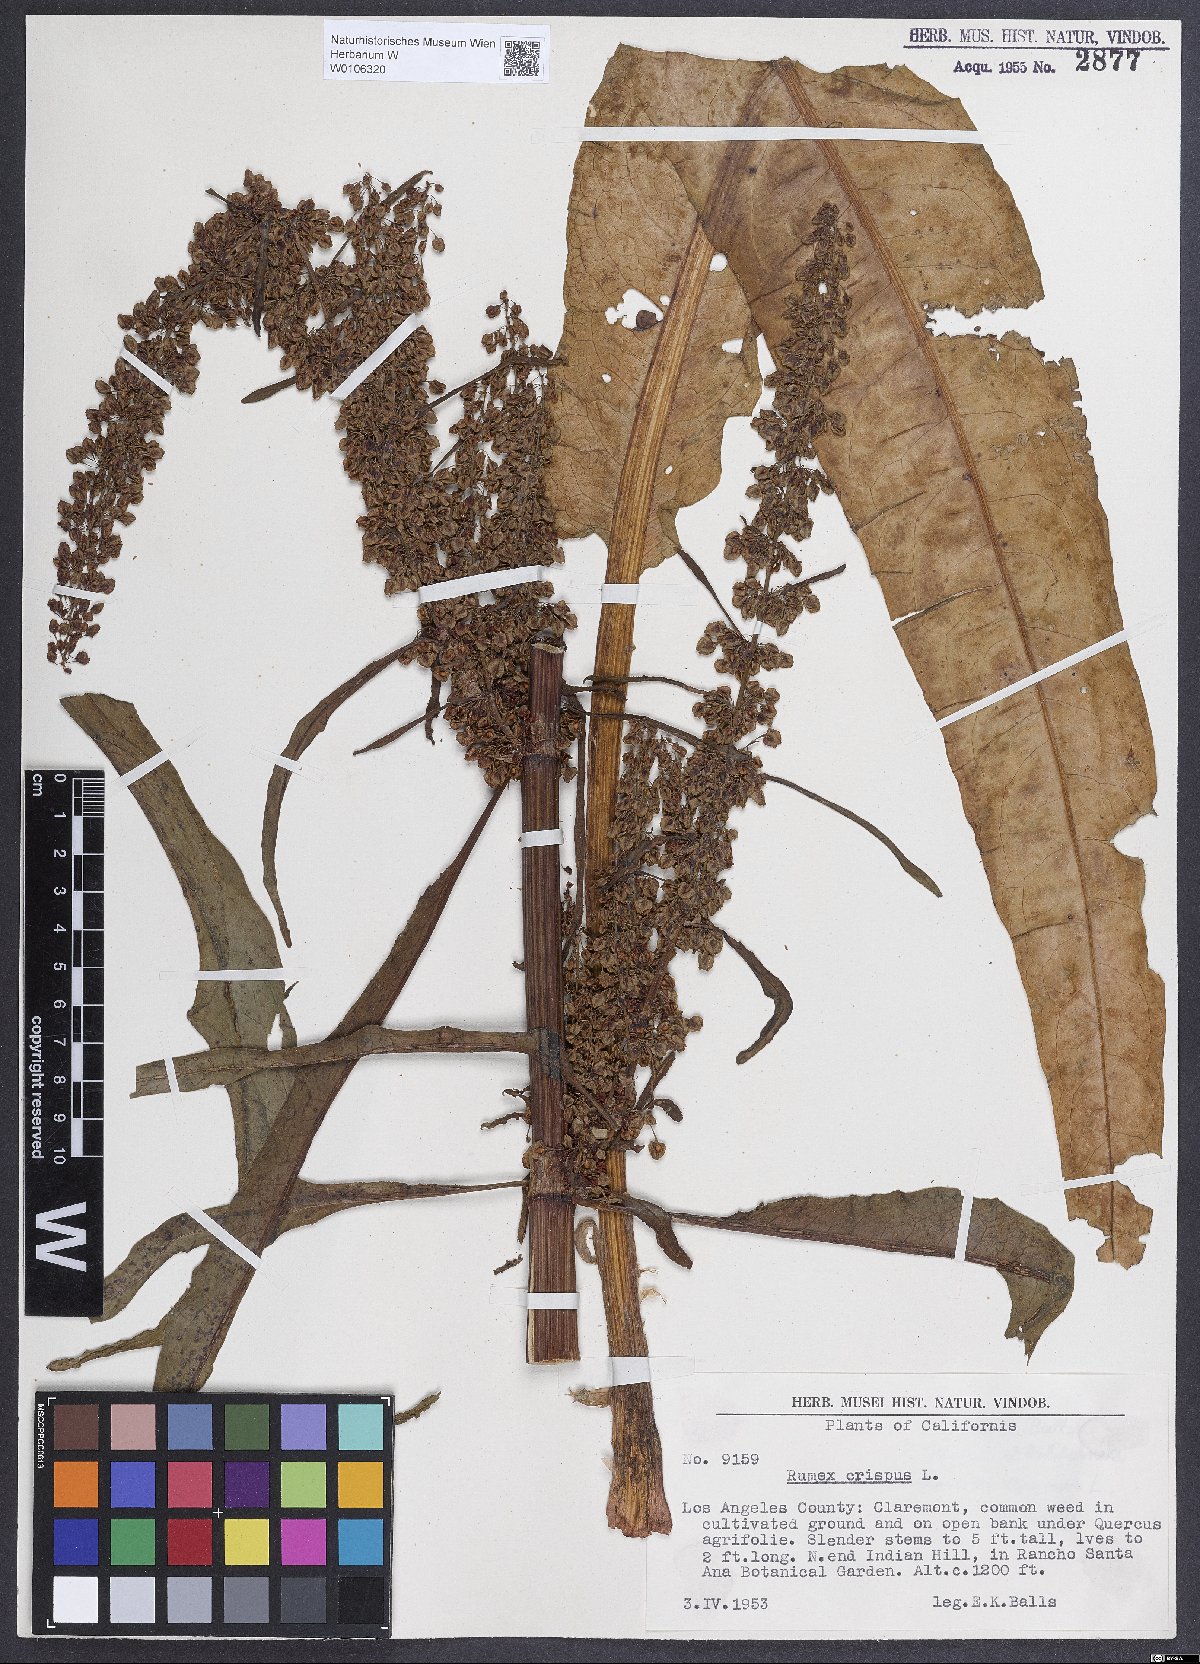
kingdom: Plantae
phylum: Tracheophyta
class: Magnoliopsida
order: Caryophyllales
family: Polygonaceae
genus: Rumex
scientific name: Rumex crispus
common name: Curled dock
